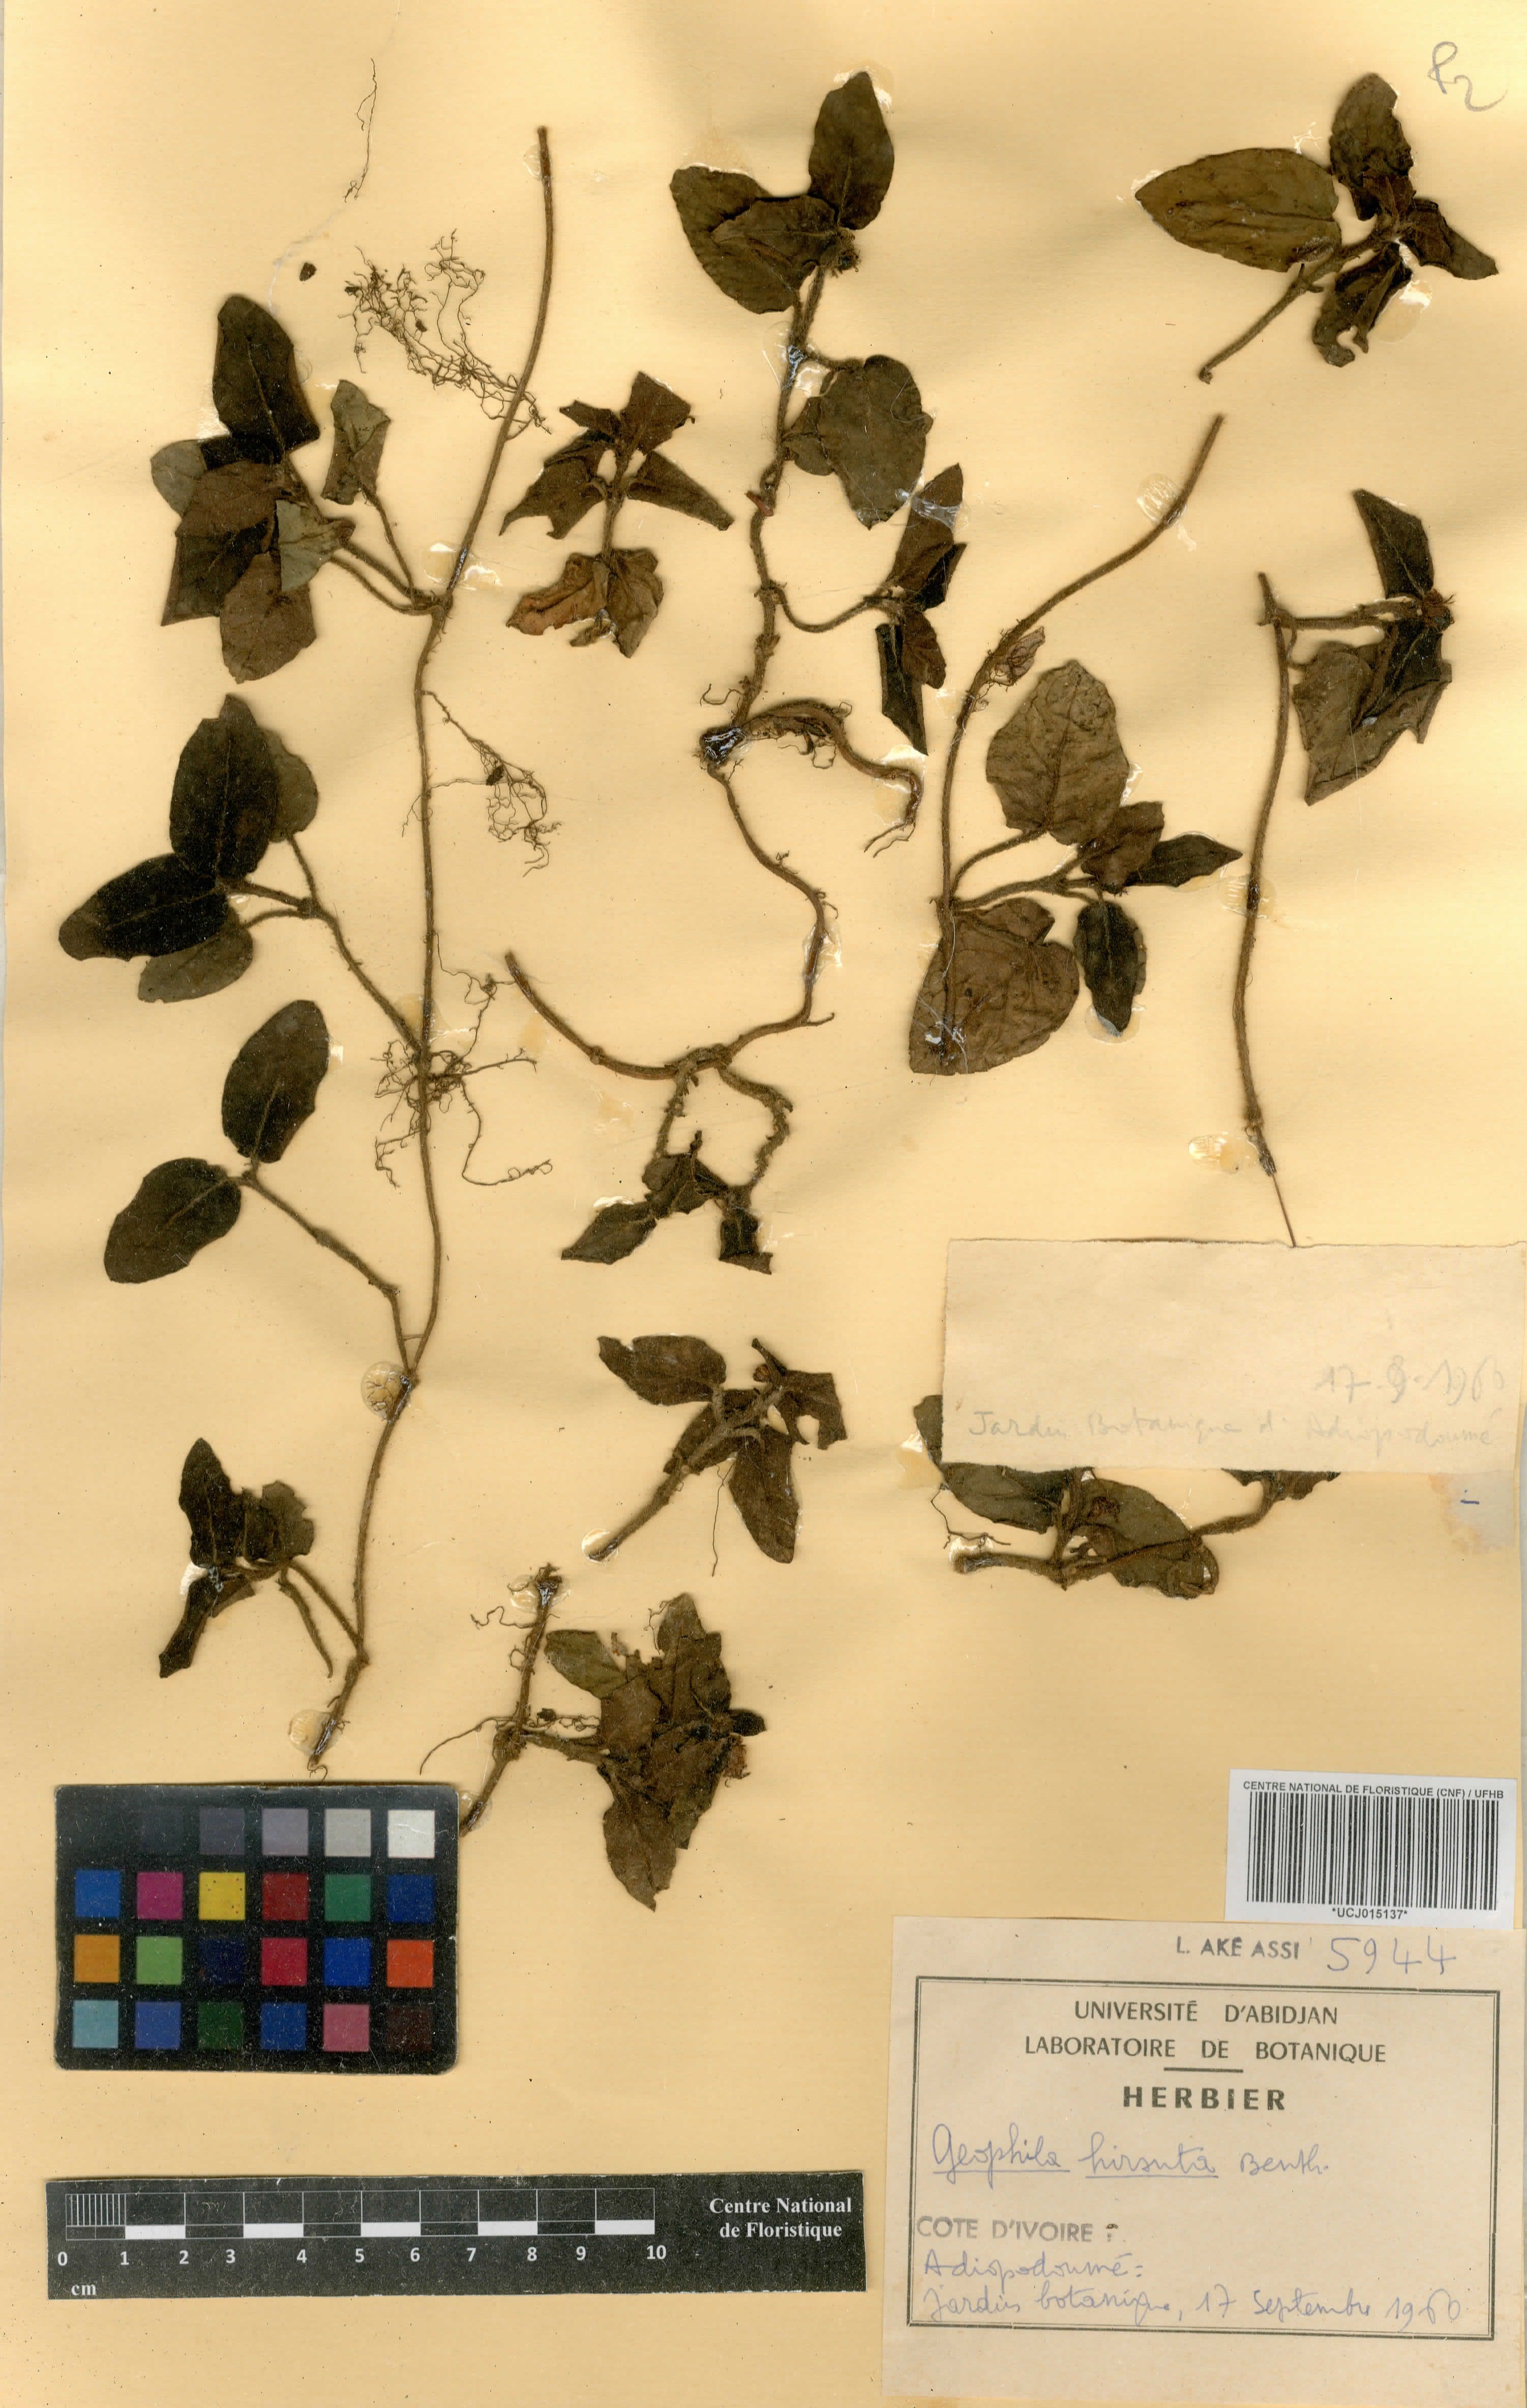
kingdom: Plantae
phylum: Tracheophyta
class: Magnoliopsida
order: Gentianales
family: Rubiaceae
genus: Hymenocoleus
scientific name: Hymenocoleus hirsutus
